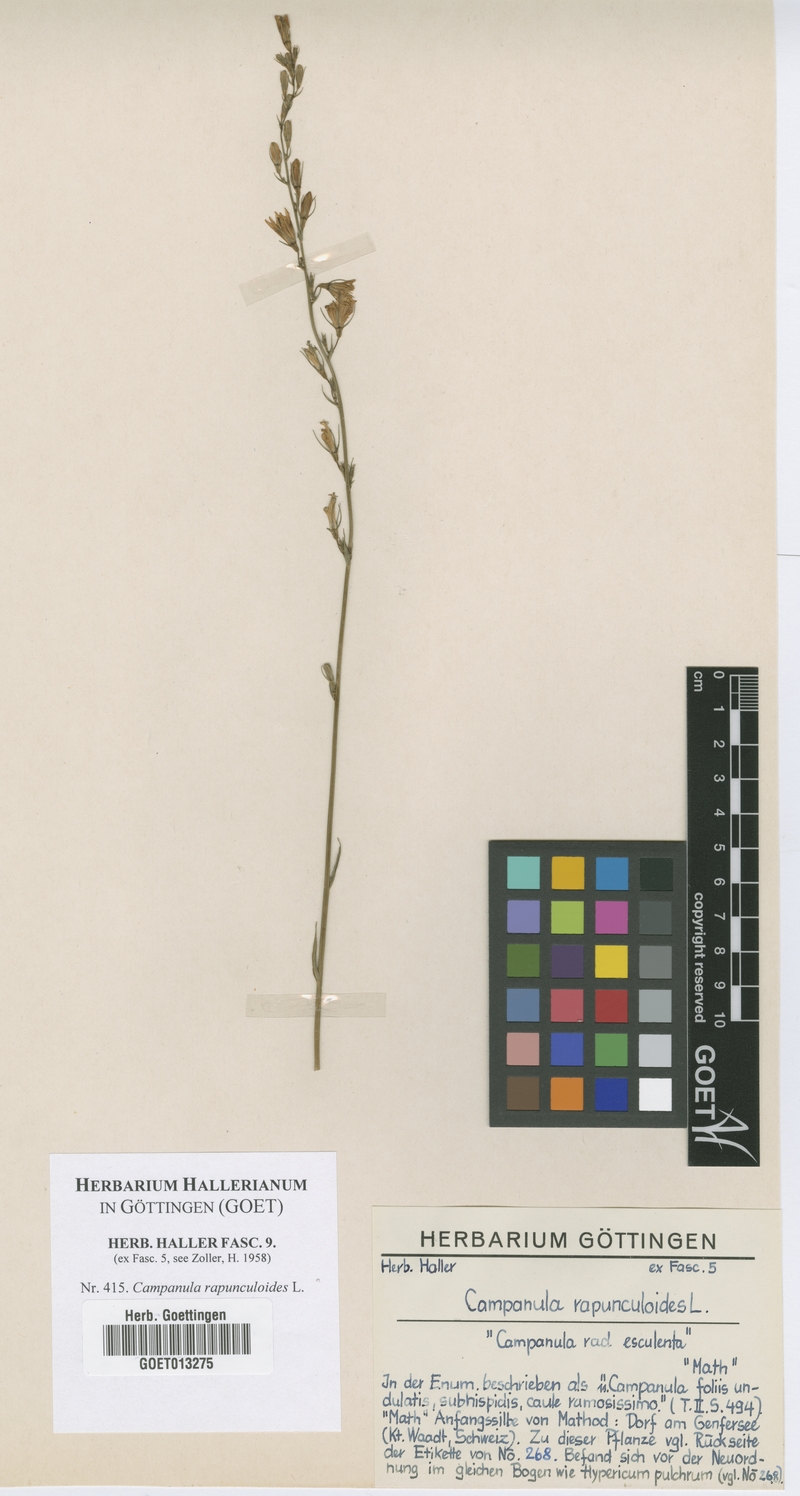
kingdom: Plantae
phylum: Tracheophyta
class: Magnoliopsida
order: Asterales
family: Campanulaceae
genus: Campanula
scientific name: Campanula rapunculoides
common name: Creeping bellflower
